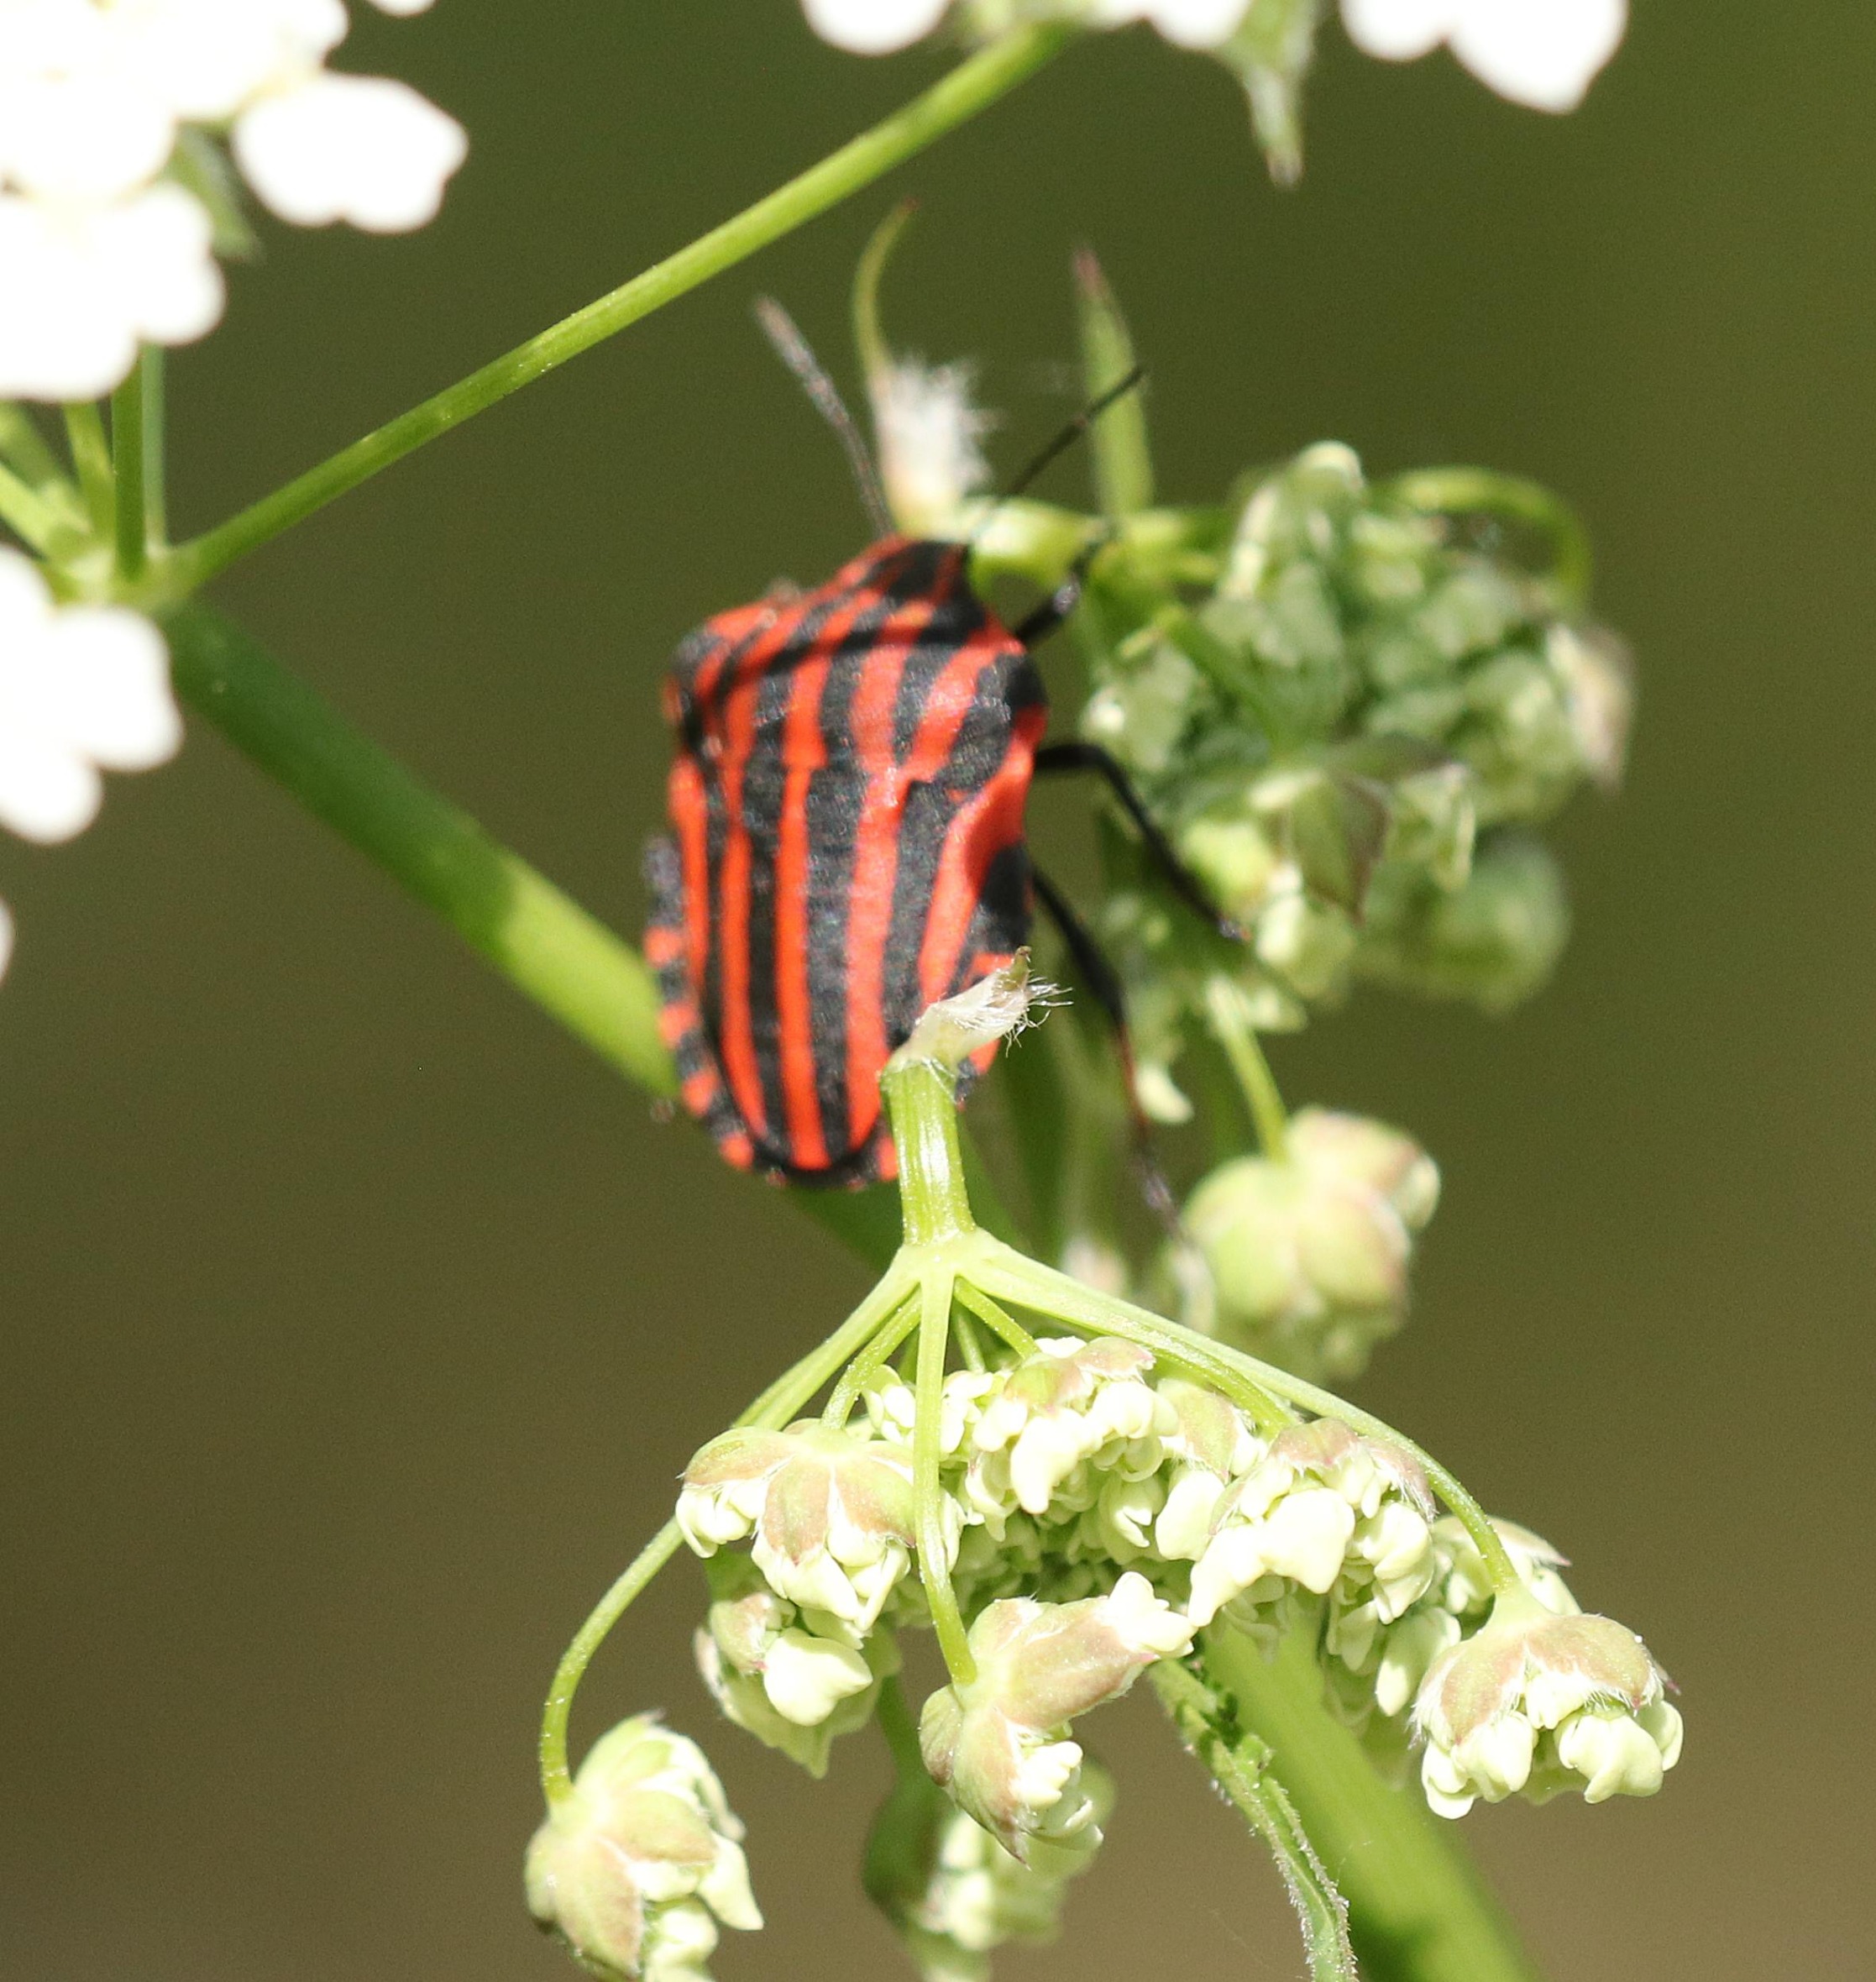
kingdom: Animalia
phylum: Arthropoda
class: Insecta
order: Hemiptera
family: Pentatomidae
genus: Graphosoma
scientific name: Graphosoma italicum
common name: Stribetæge
